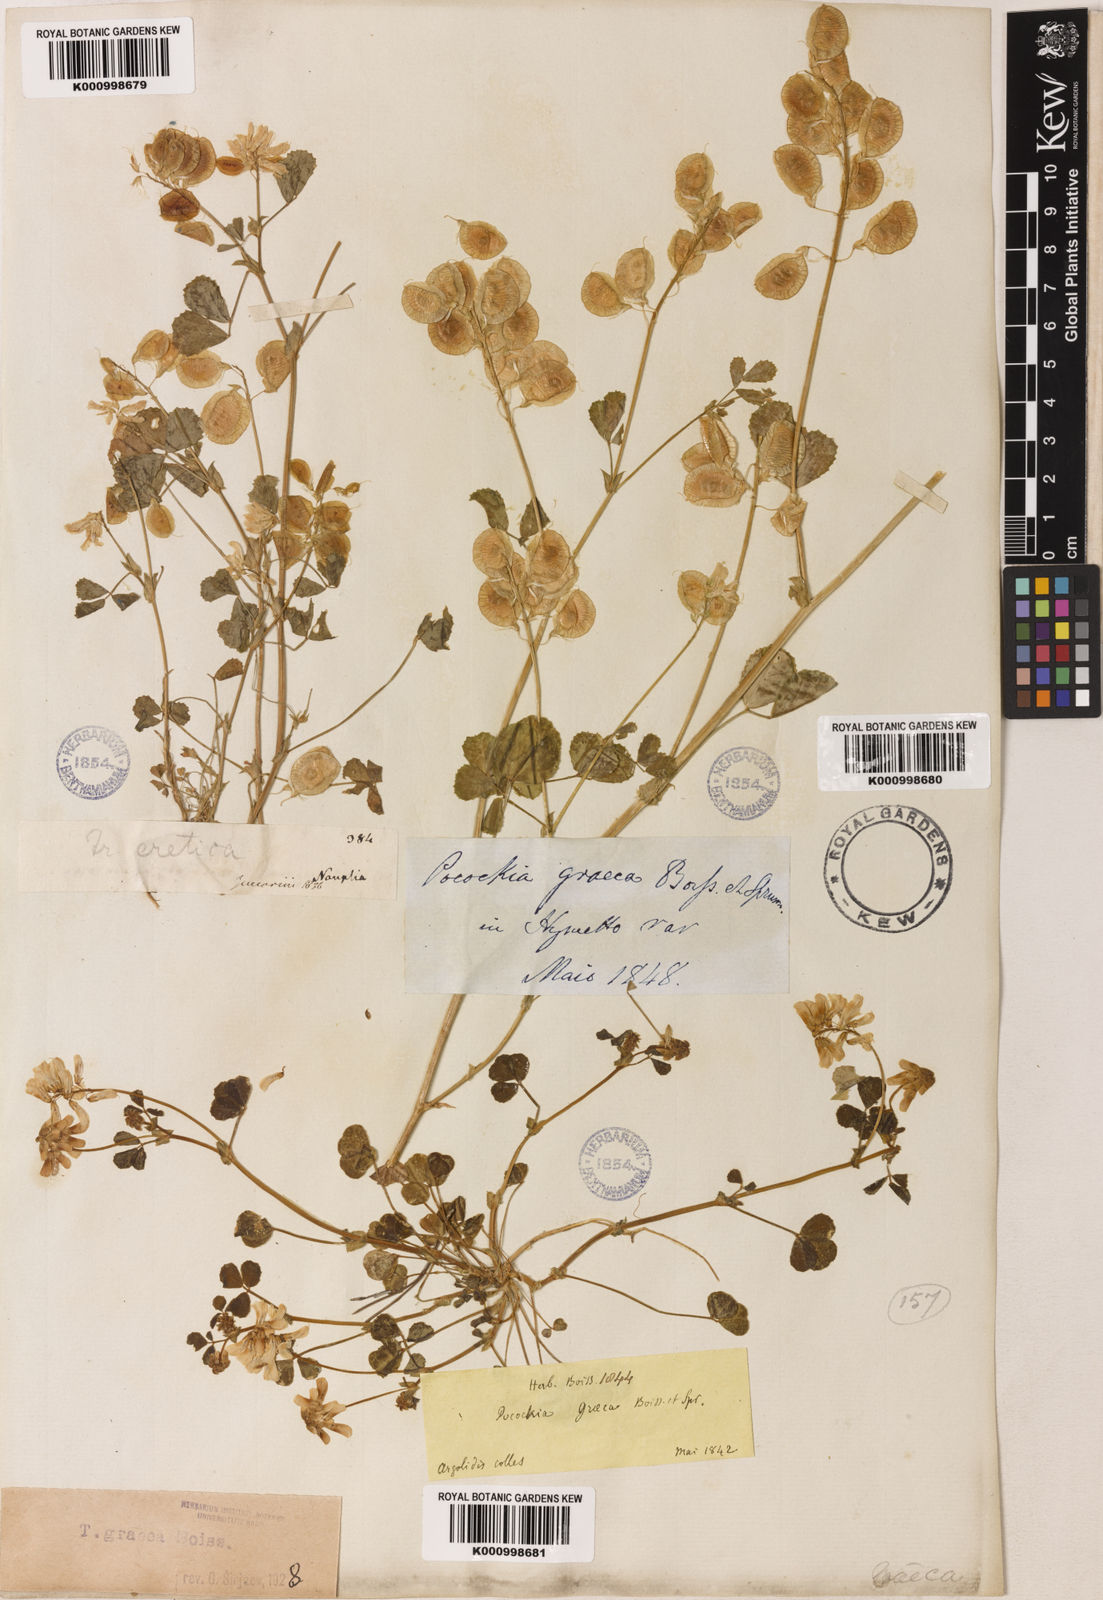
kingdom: Plantae
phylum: Tracheophyta
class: Magnoliopsida
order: Fabales
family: Fabaceae
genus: Trigonella
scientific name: Trigonella graeca
